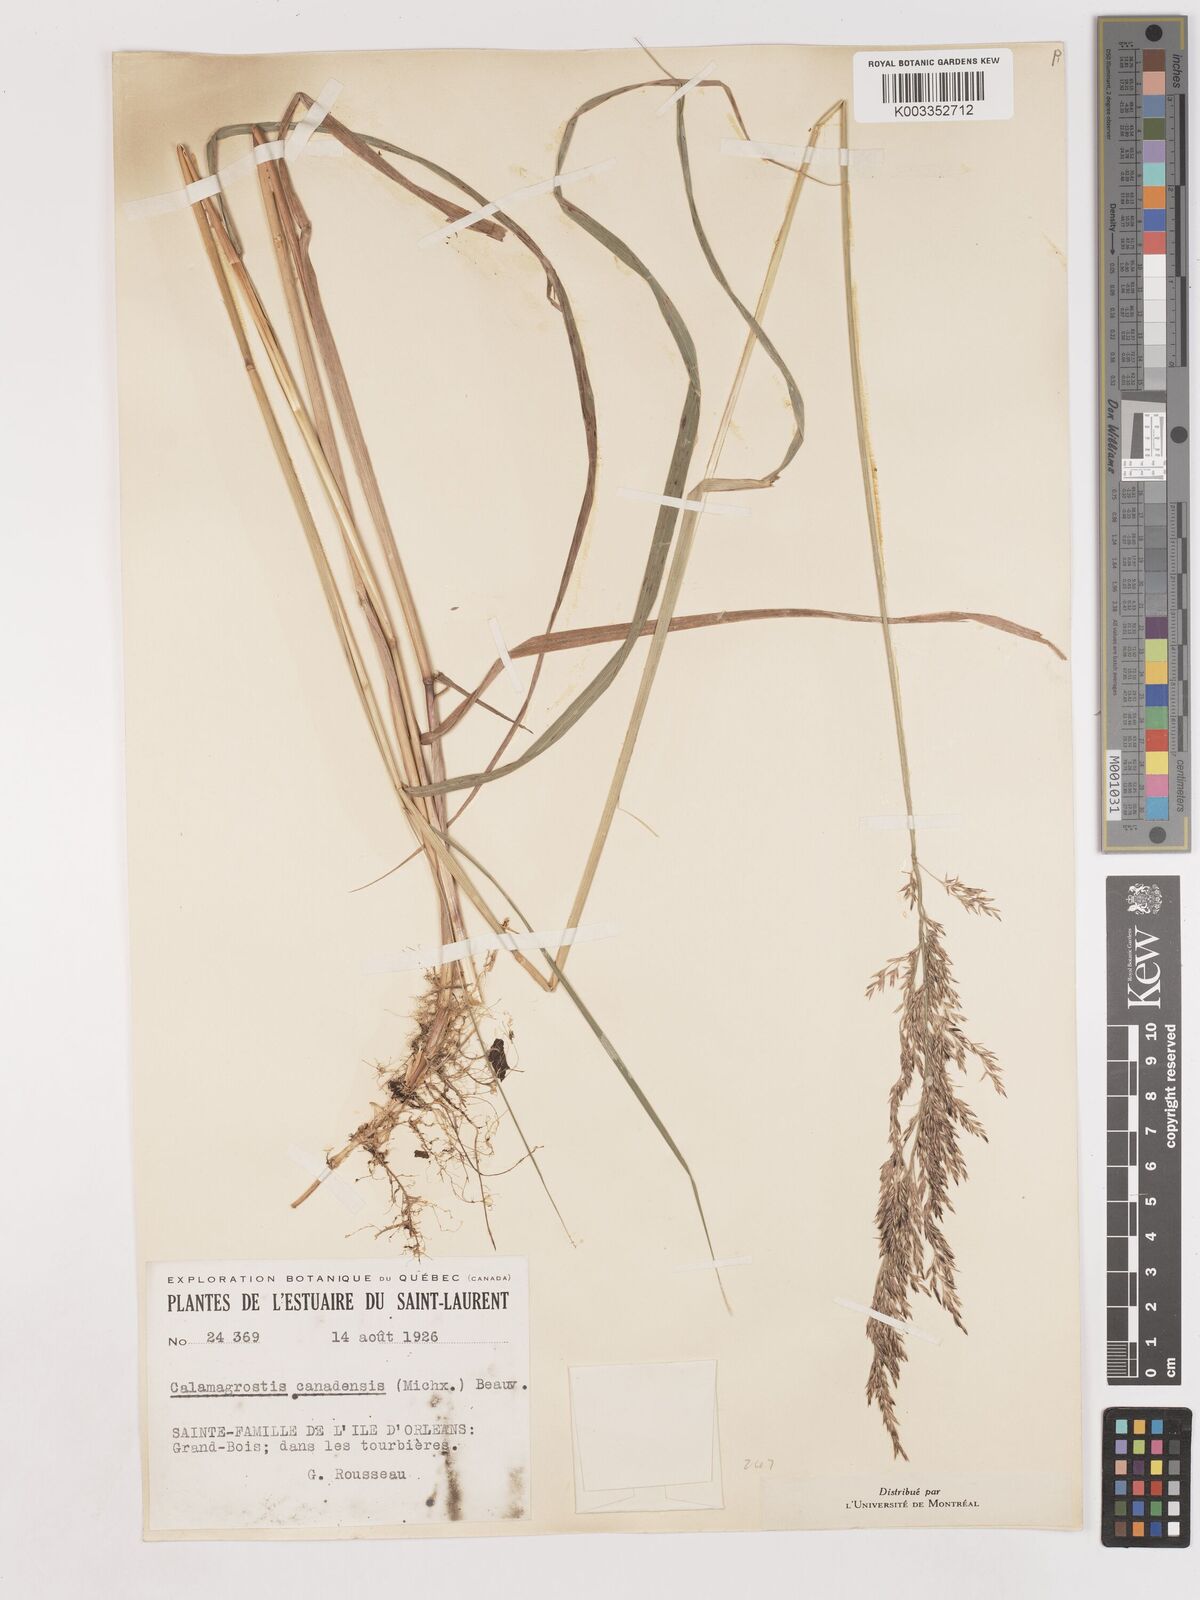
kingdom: Plantae
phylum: Tracheophyta
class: Liliopsida
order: Poales
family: Poaceae
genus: Calamagrostis
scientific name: Calamagrostis canadensis
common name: Canada bluejoint
